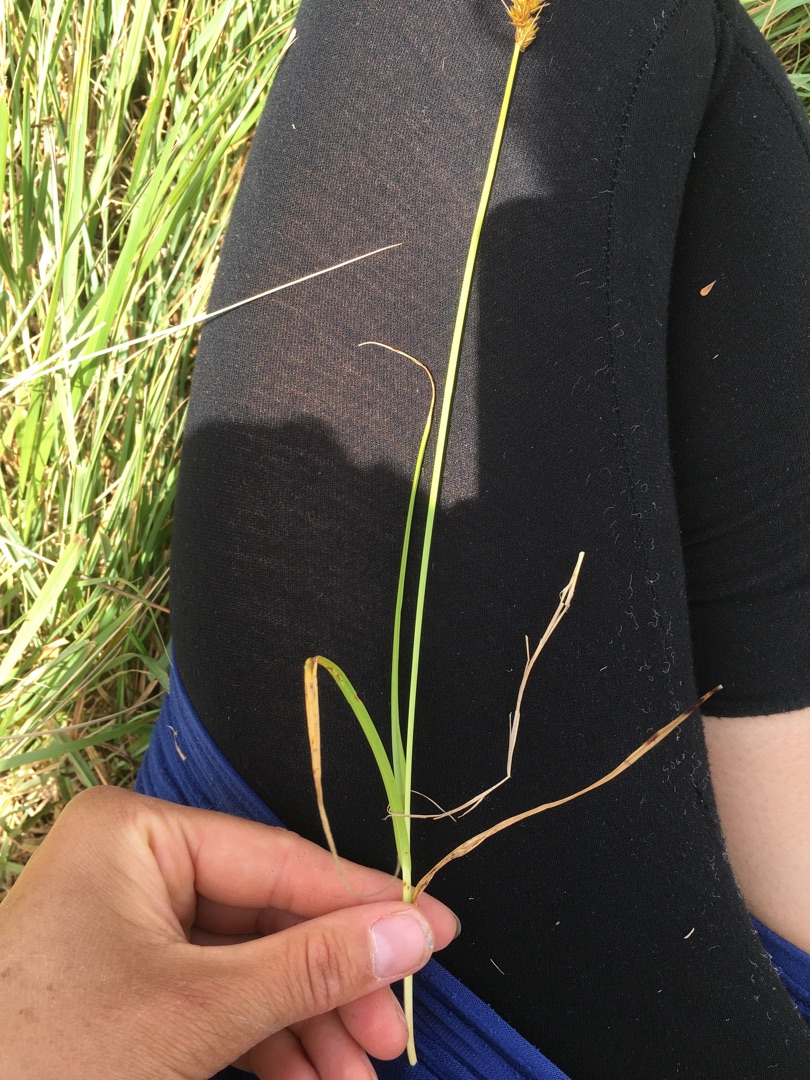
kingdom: Plantae
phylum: Tracheophyta
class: Liliopsida
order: Poales
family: Cyperaceae
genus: Carex
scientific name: Carex otrubae
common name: Sylt-star
